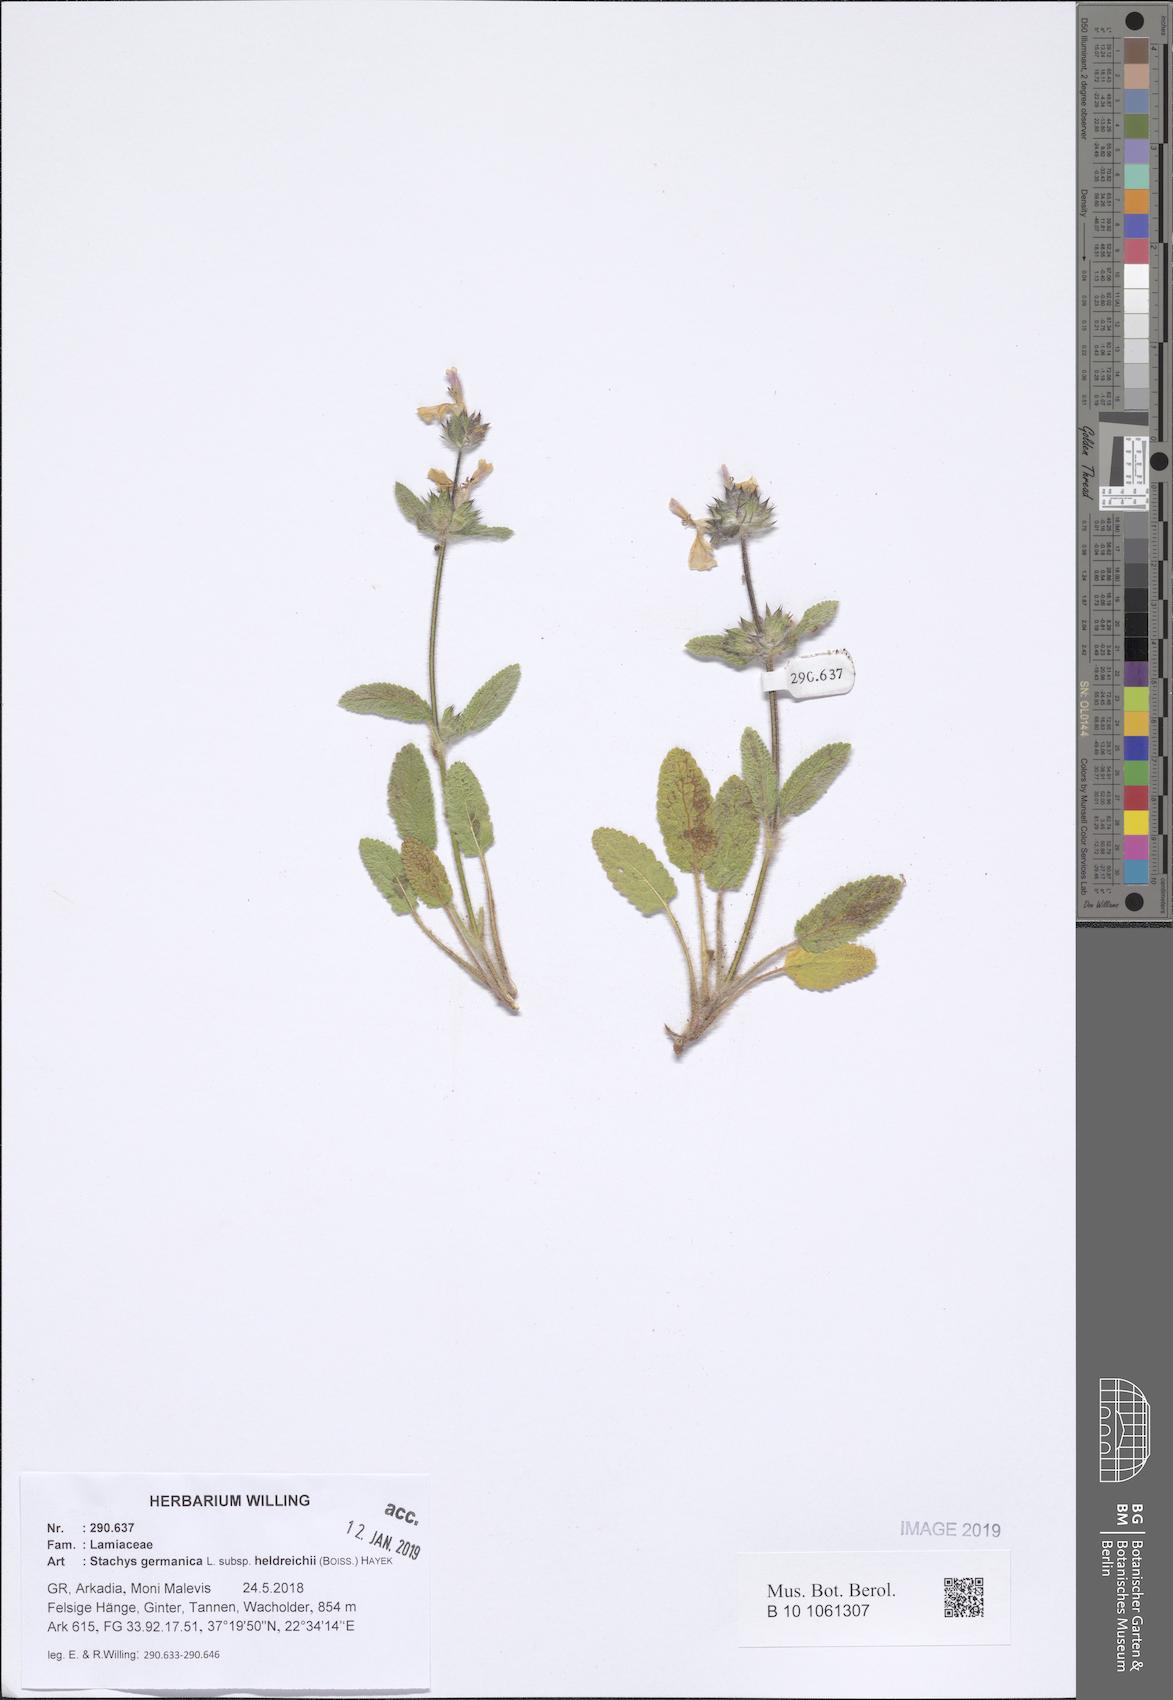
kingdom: Plantae
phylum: Tracheophyta
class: Magnoliopsida
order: Lamiales
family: Lamiaceae
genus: Stachys
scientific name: Stachys germanica
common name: Downy woundwort
